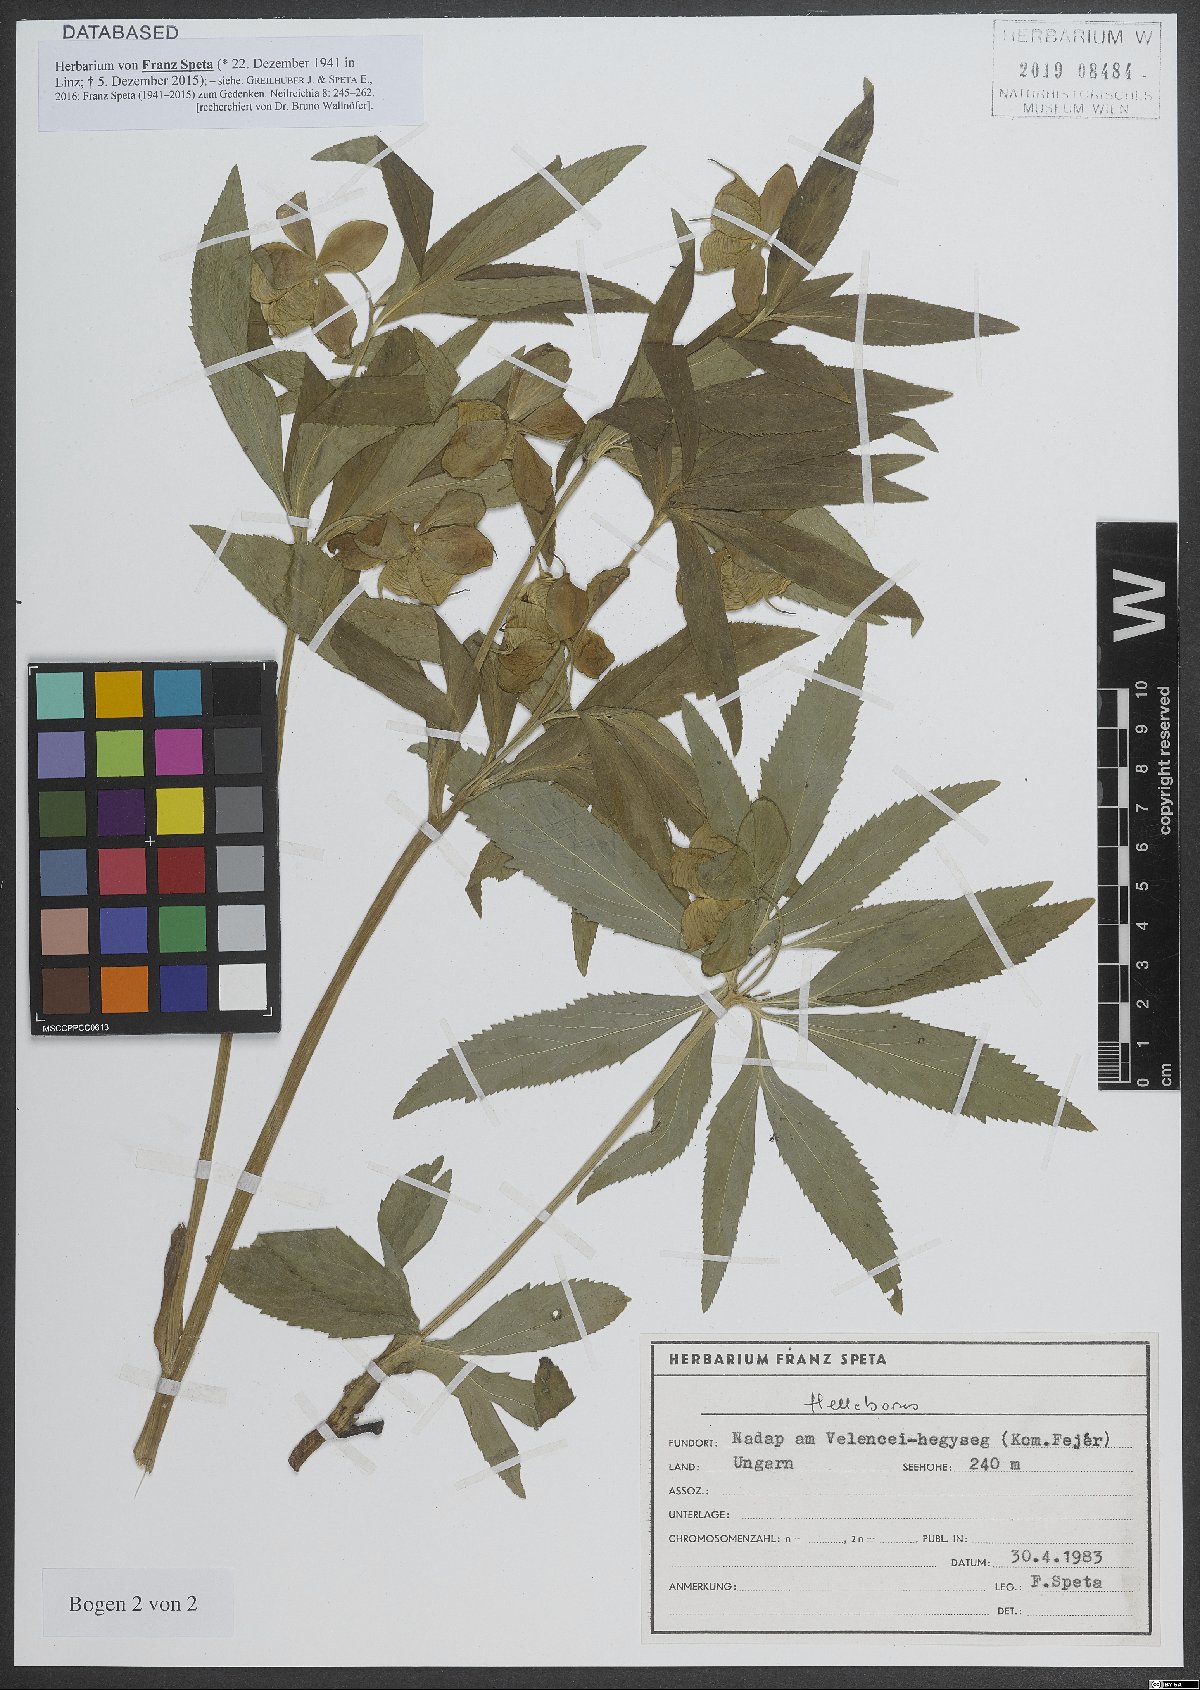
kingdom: Plantae
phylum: Tracheophyta
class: Magnoliopsida
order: Ranunculales
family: Ranunculaceae
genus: Helleborus
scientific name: Helleborus
